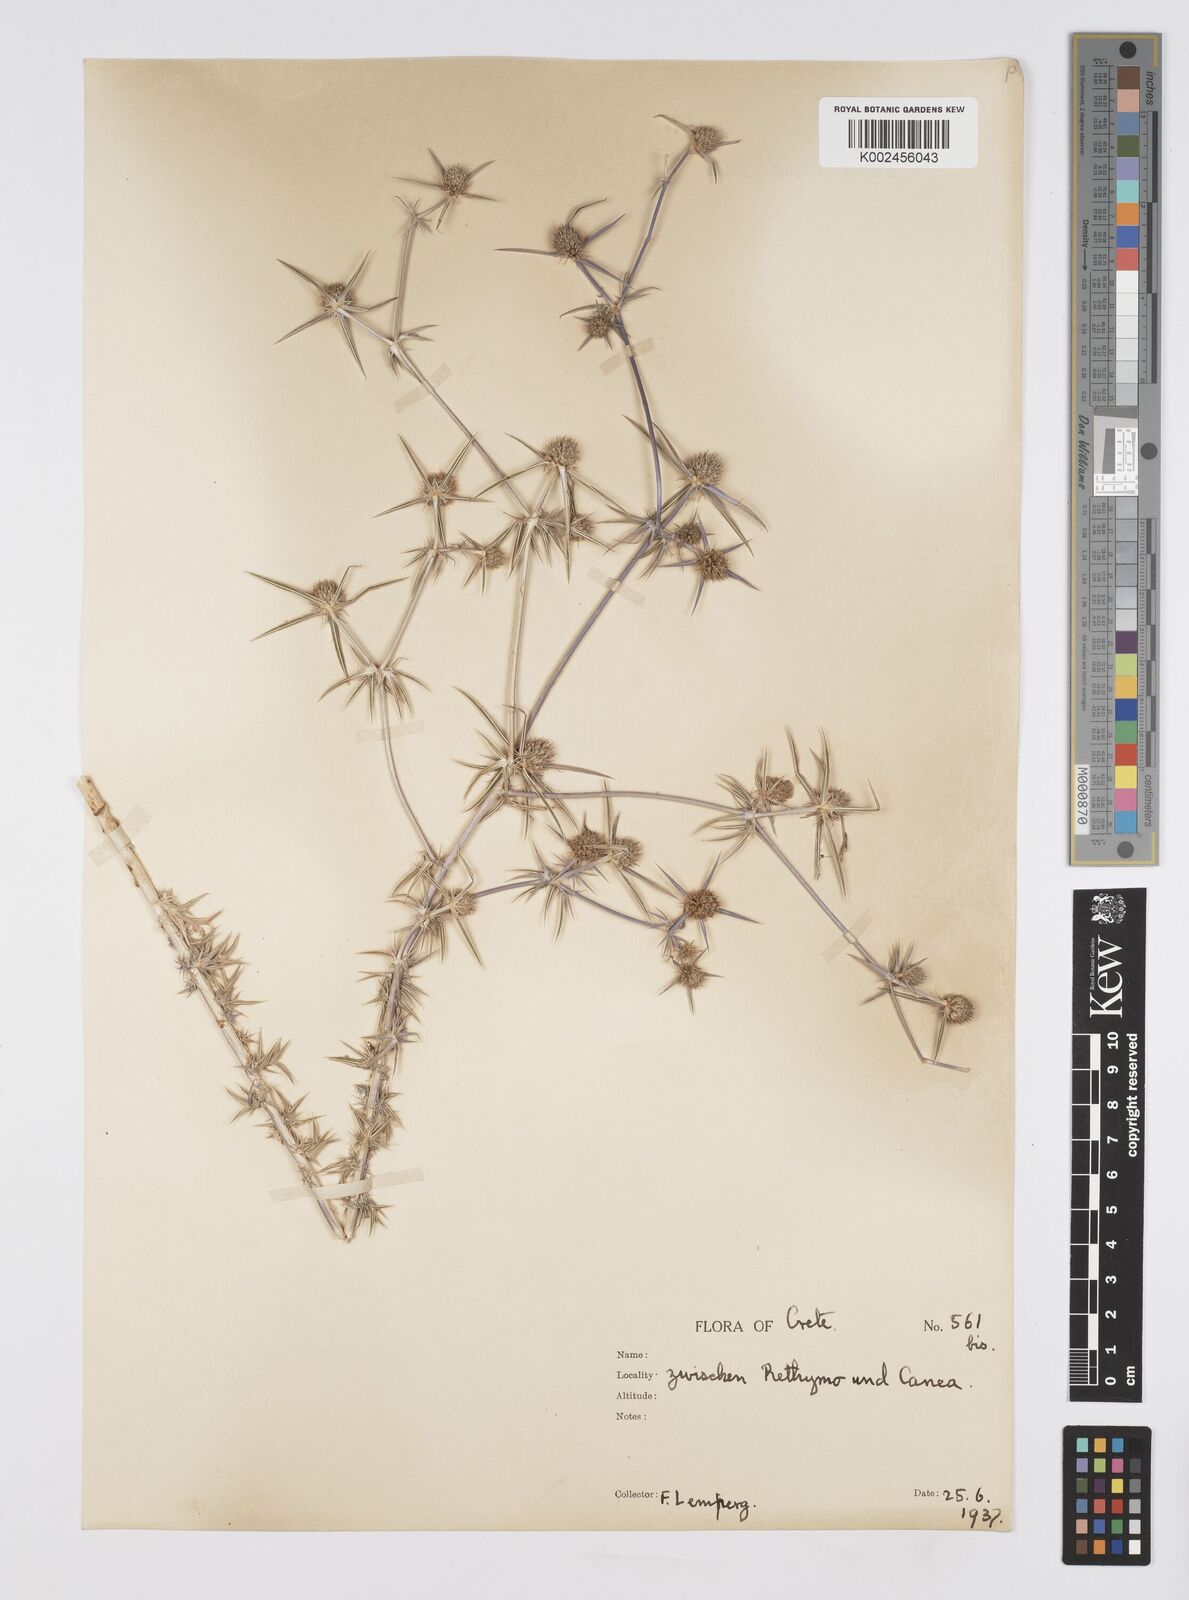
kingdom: Plantae
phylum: Tracheophyta
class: Magnoliopsida
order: Apiales
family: Apiaceae
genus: Eryngium
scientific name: Eryngium creticum
